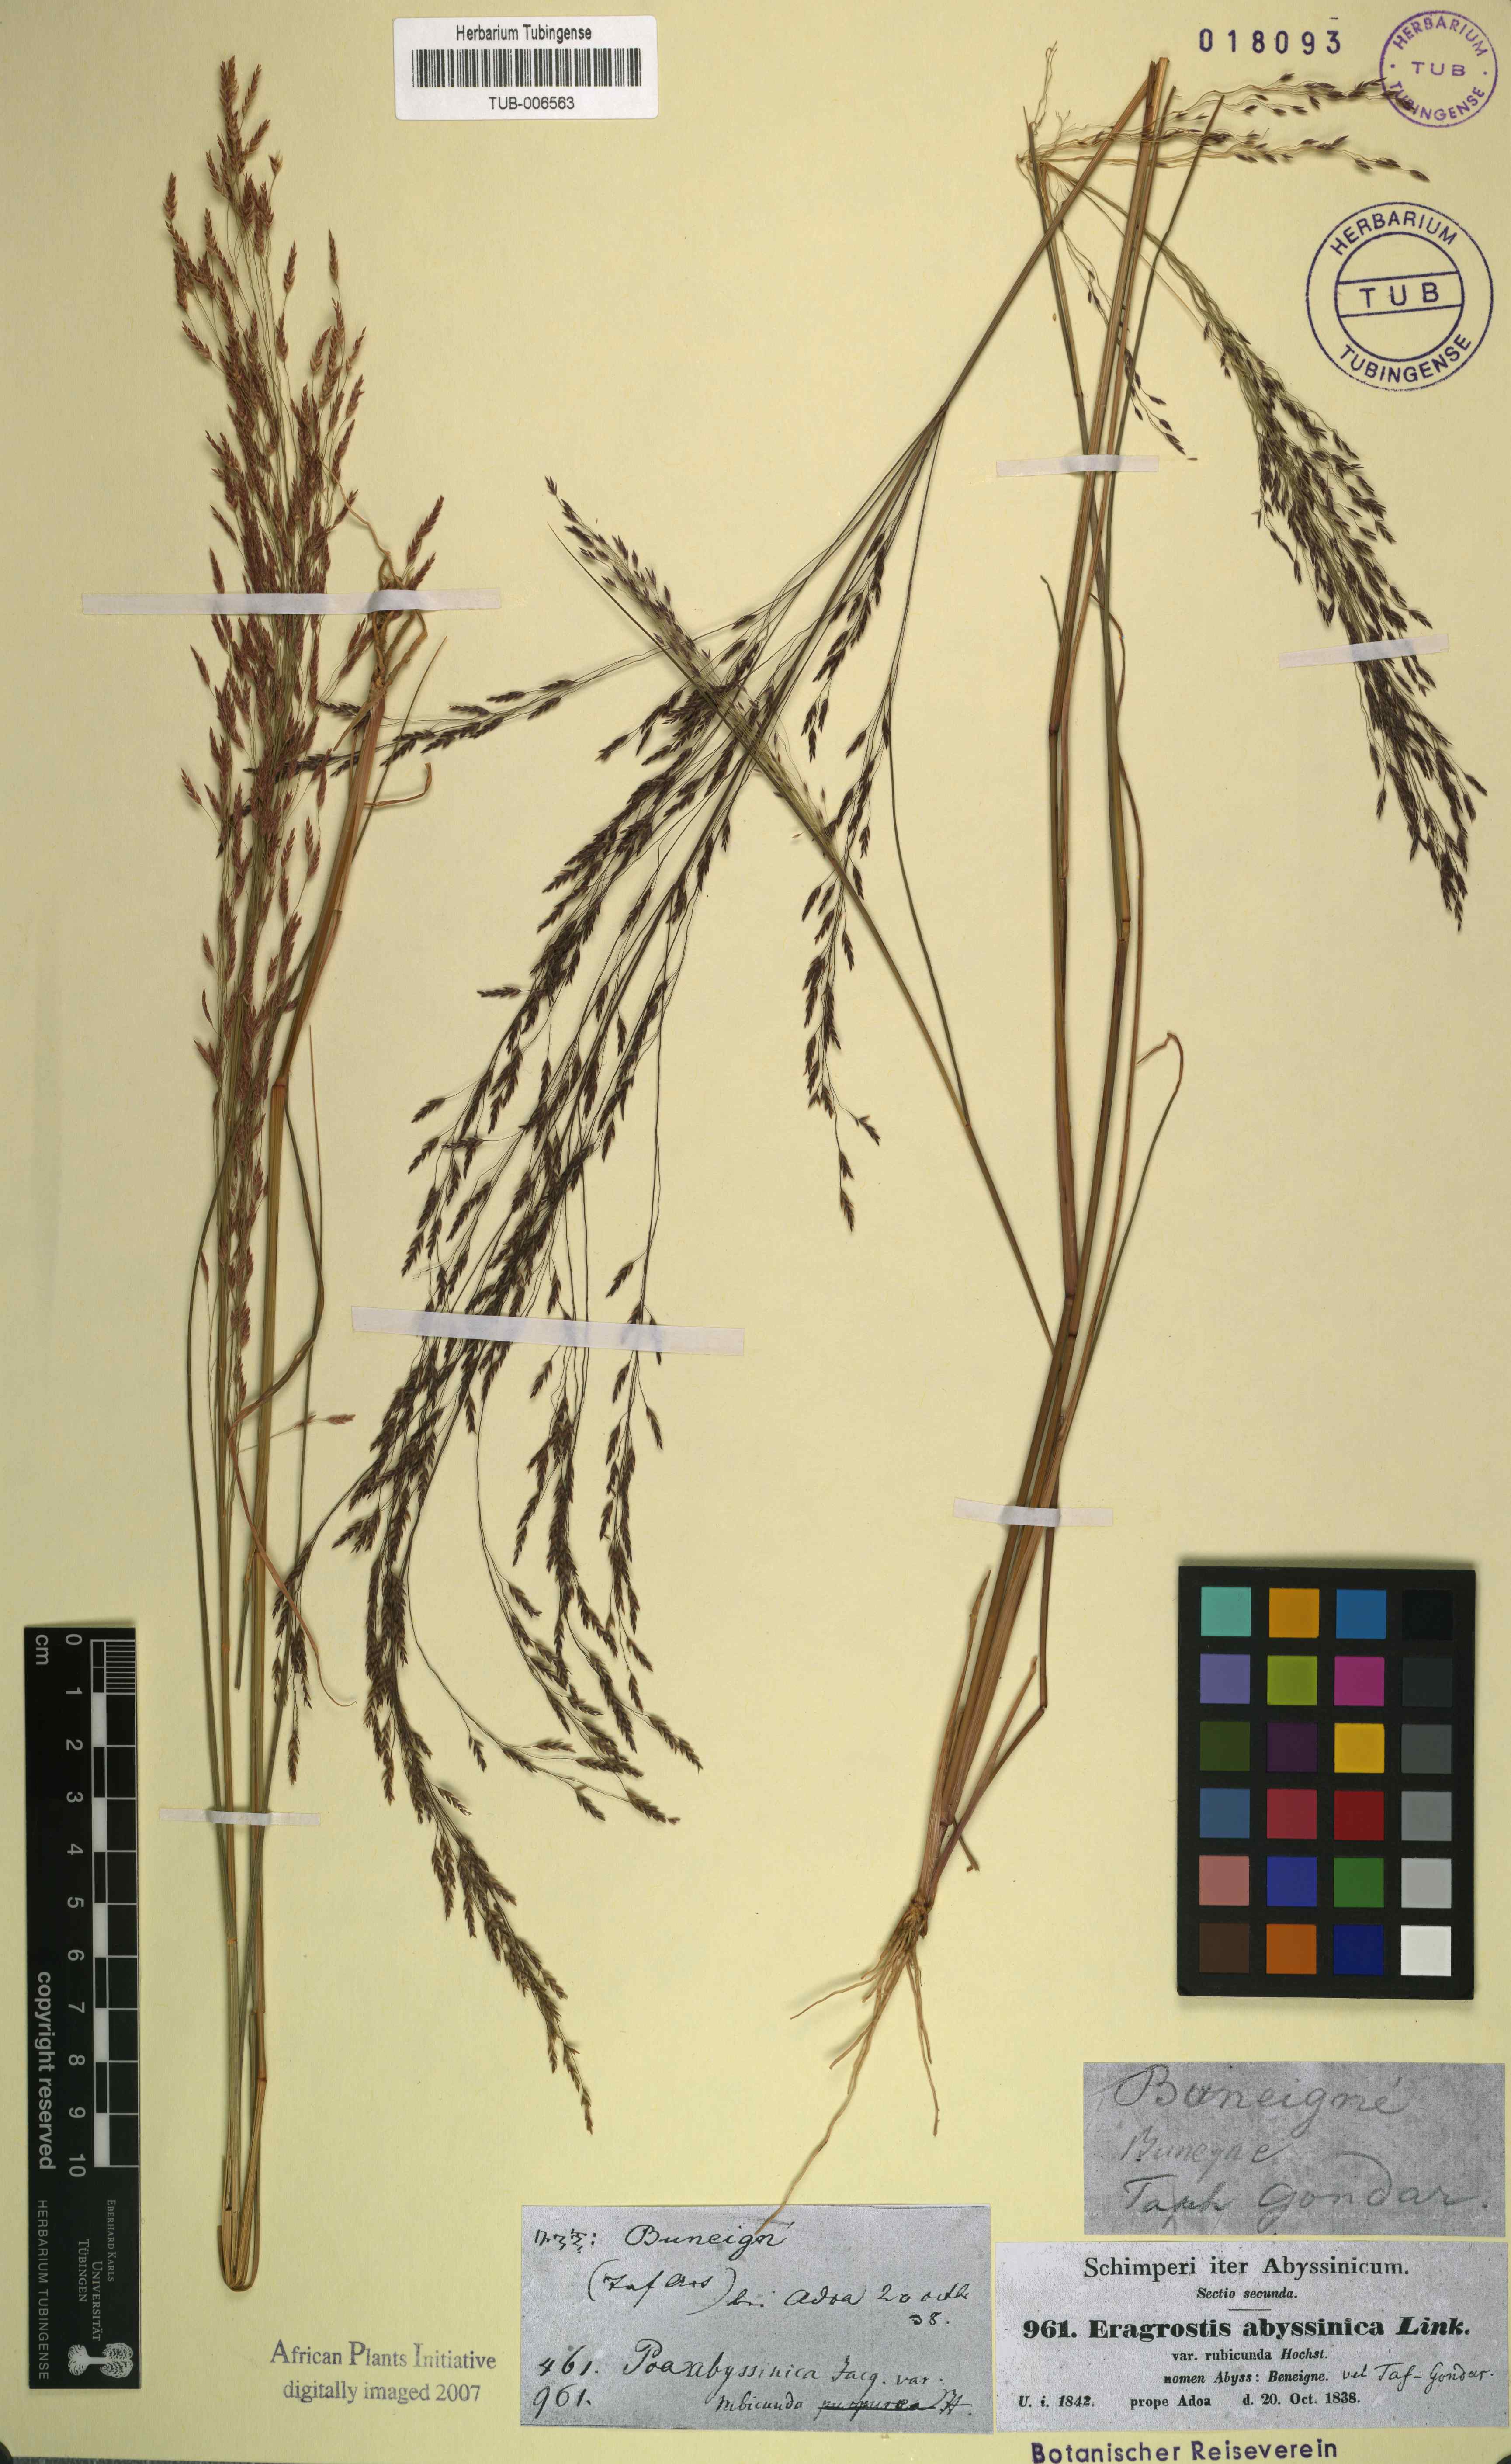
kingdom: Plantae
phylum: Tracheophyta
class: Liliopsida
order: Poales
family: Poaceae
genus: Eragrostis
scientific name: Eragrostis tef
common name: Teff
